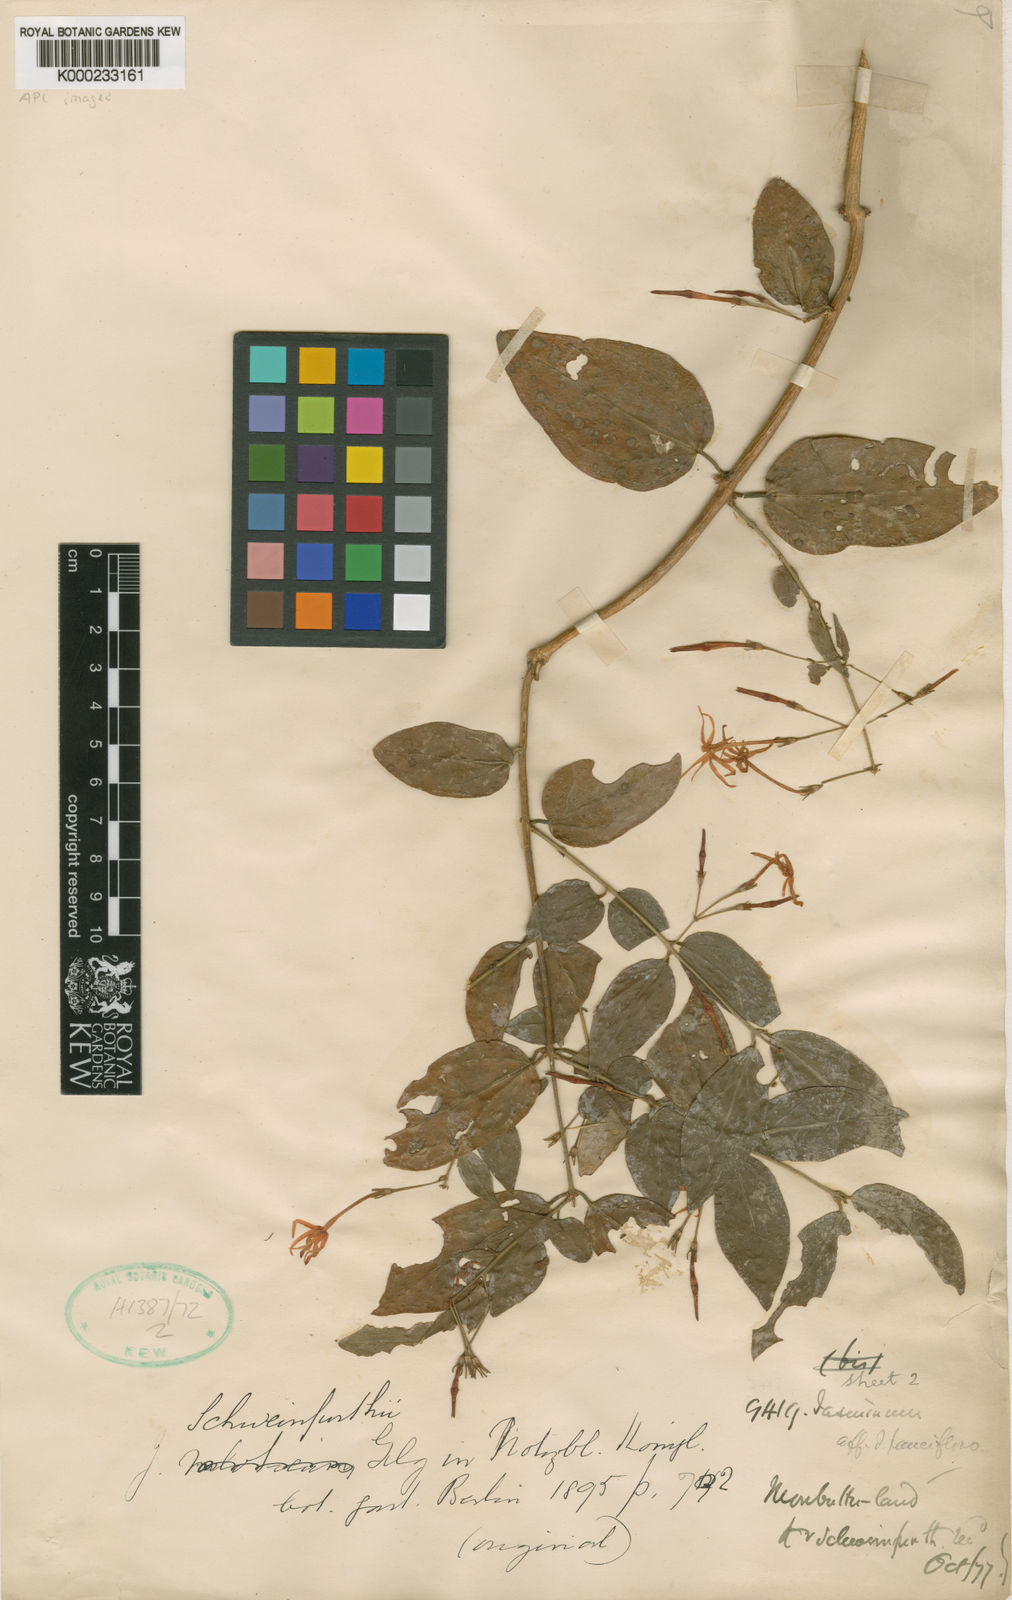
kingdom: Plantae
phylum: Tracheophyta
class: Magnoliopsida
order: Lamiales
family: Oleaceae
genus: Jasminum
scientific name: Jasminum pauciflorum
